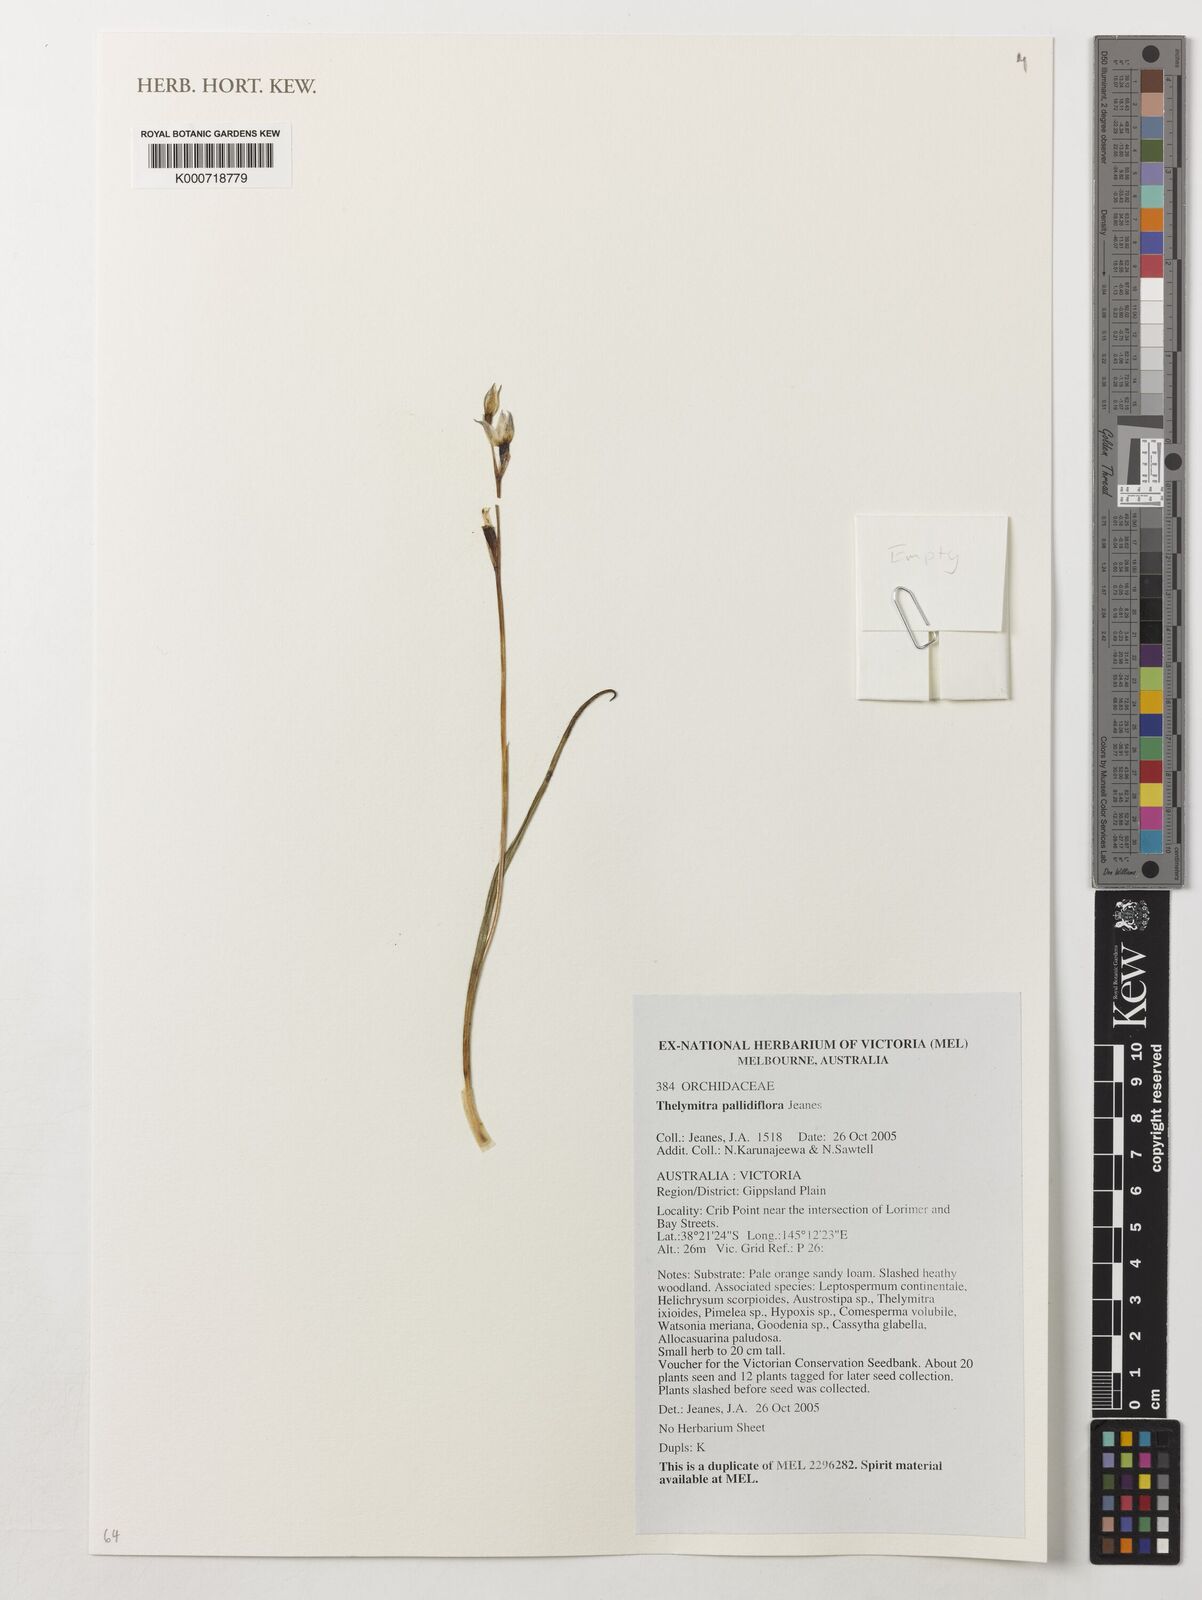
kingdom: Plantae
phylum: Tracheophyta
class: Liliopsida
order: Asparagales
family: Orchidaceae
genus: Thelymitra
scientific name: Thelymitra pallidiflora
